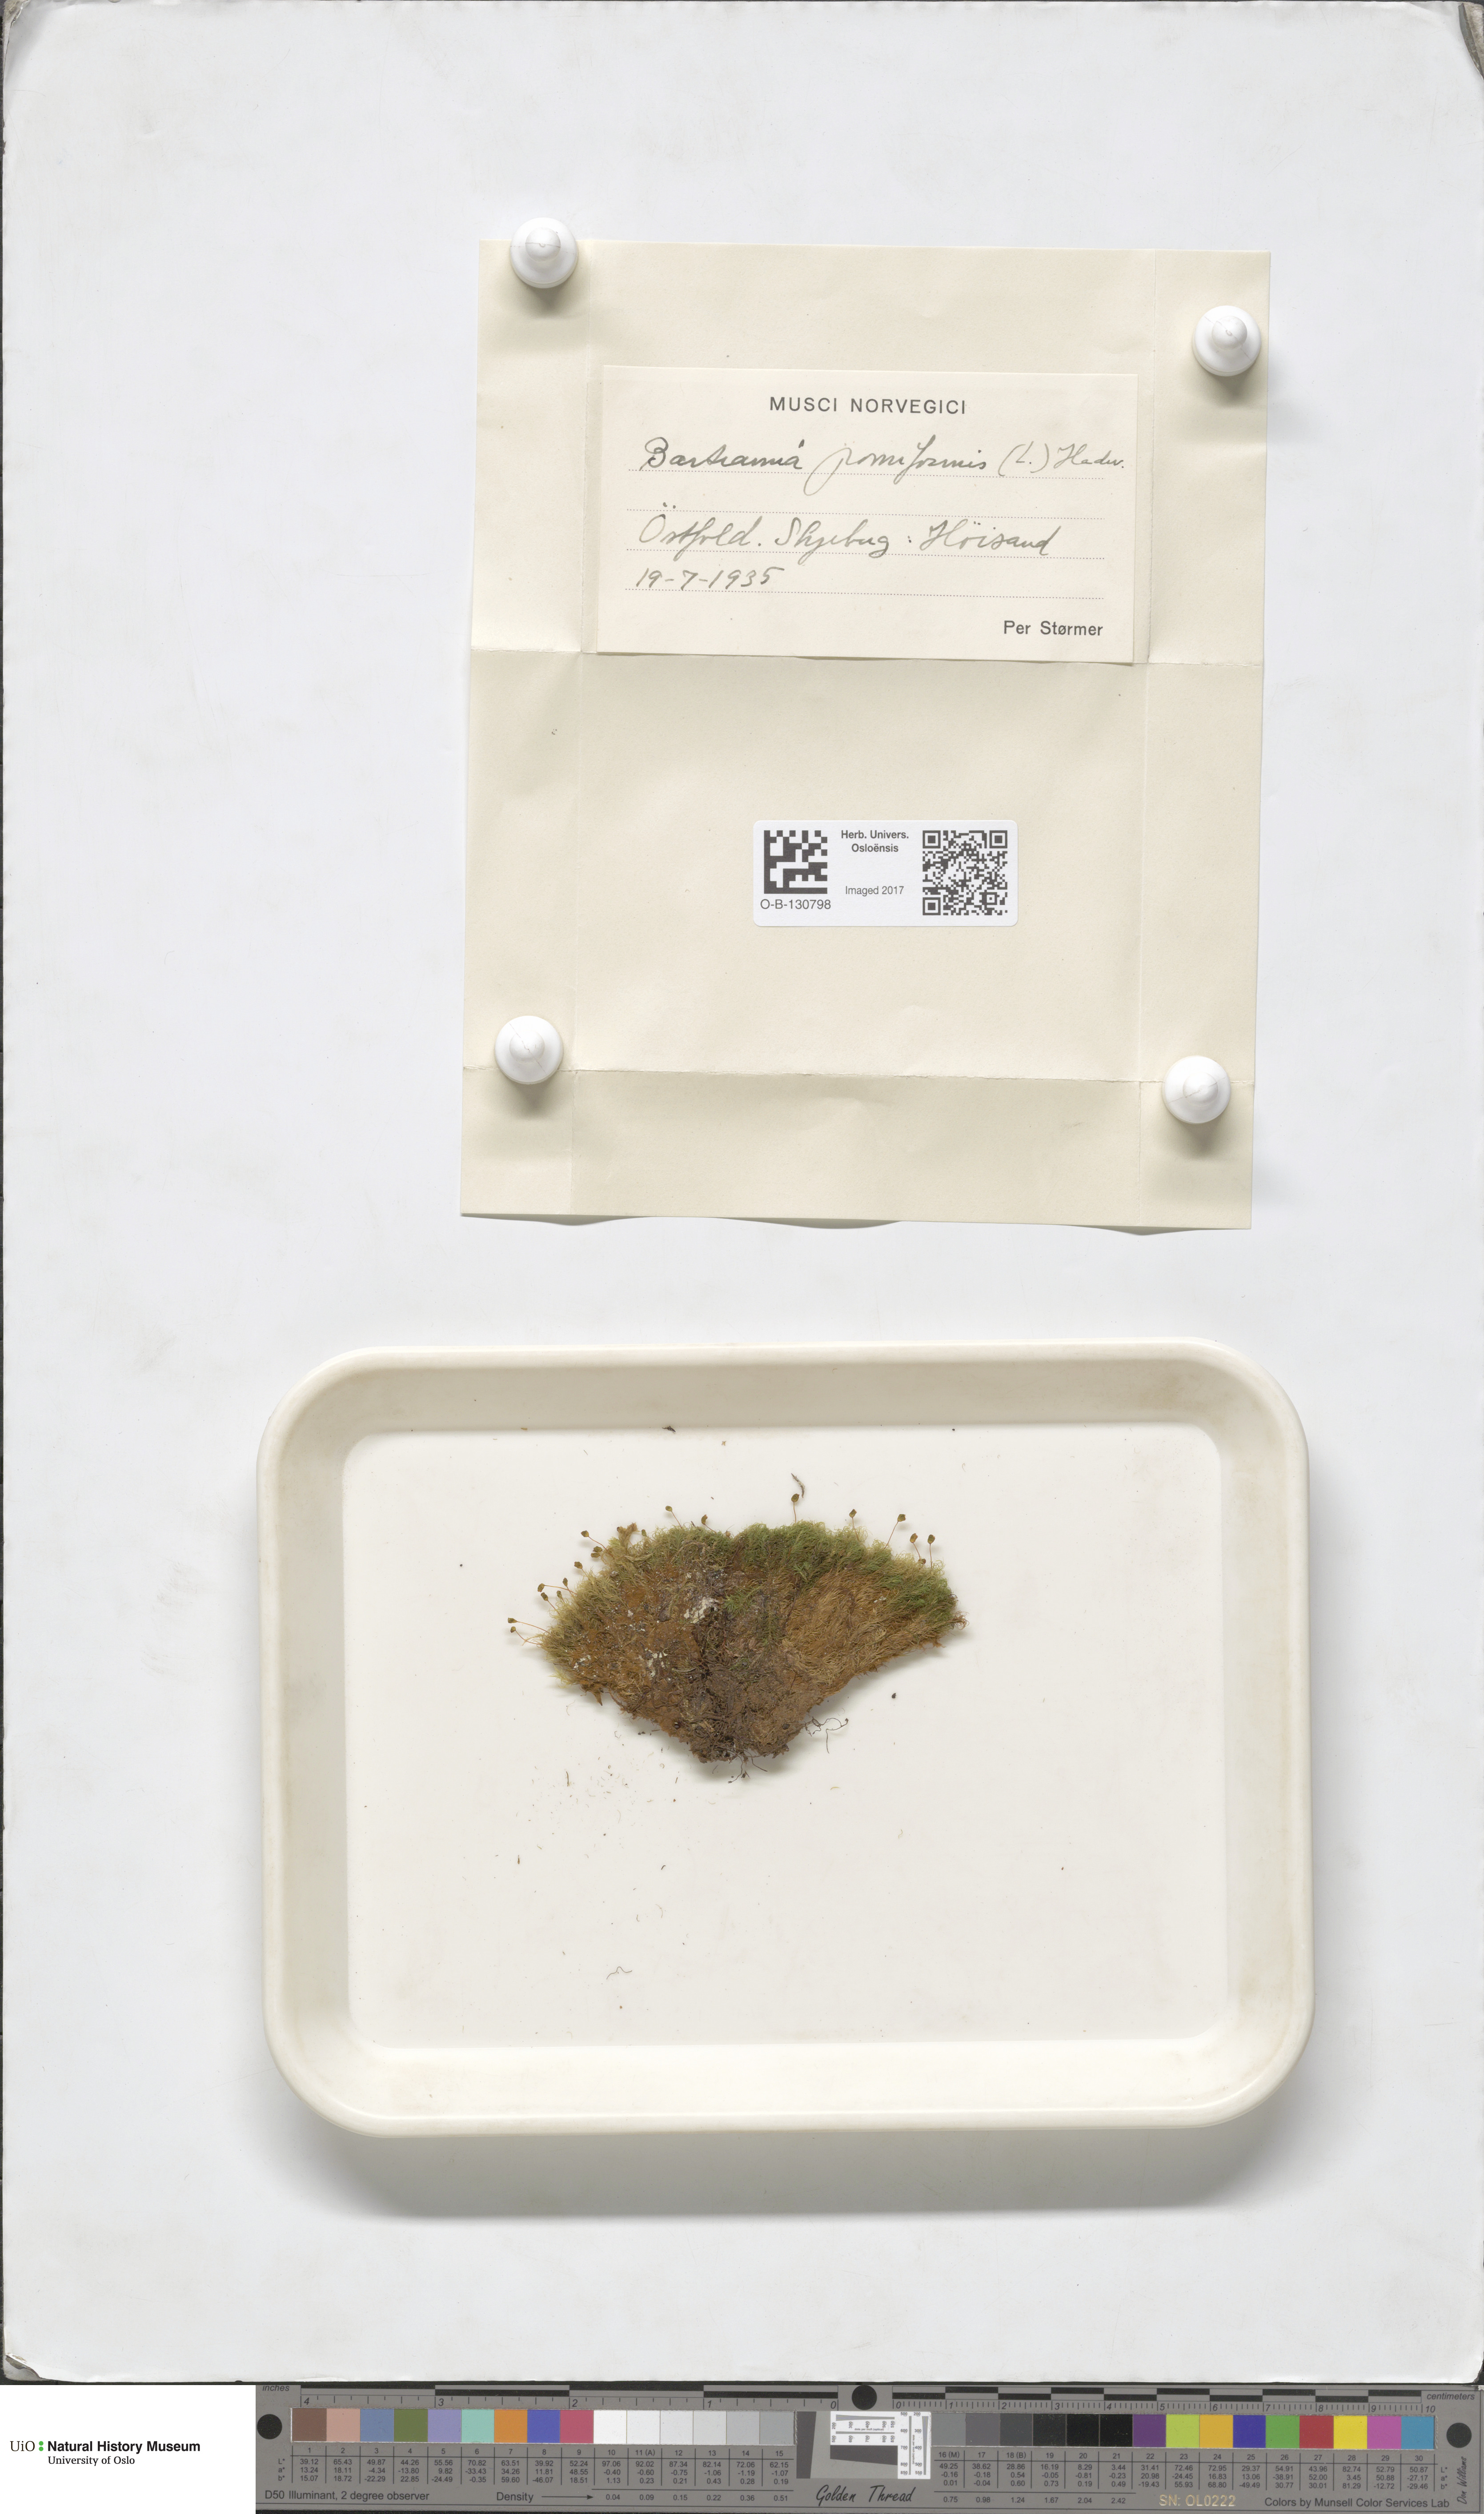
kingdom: Plantae
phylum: Bryophyta
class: Bryopsida
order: Bartramiales
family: Bartramiaceae
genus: Bartramia
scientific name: Bartramia pomiformis
